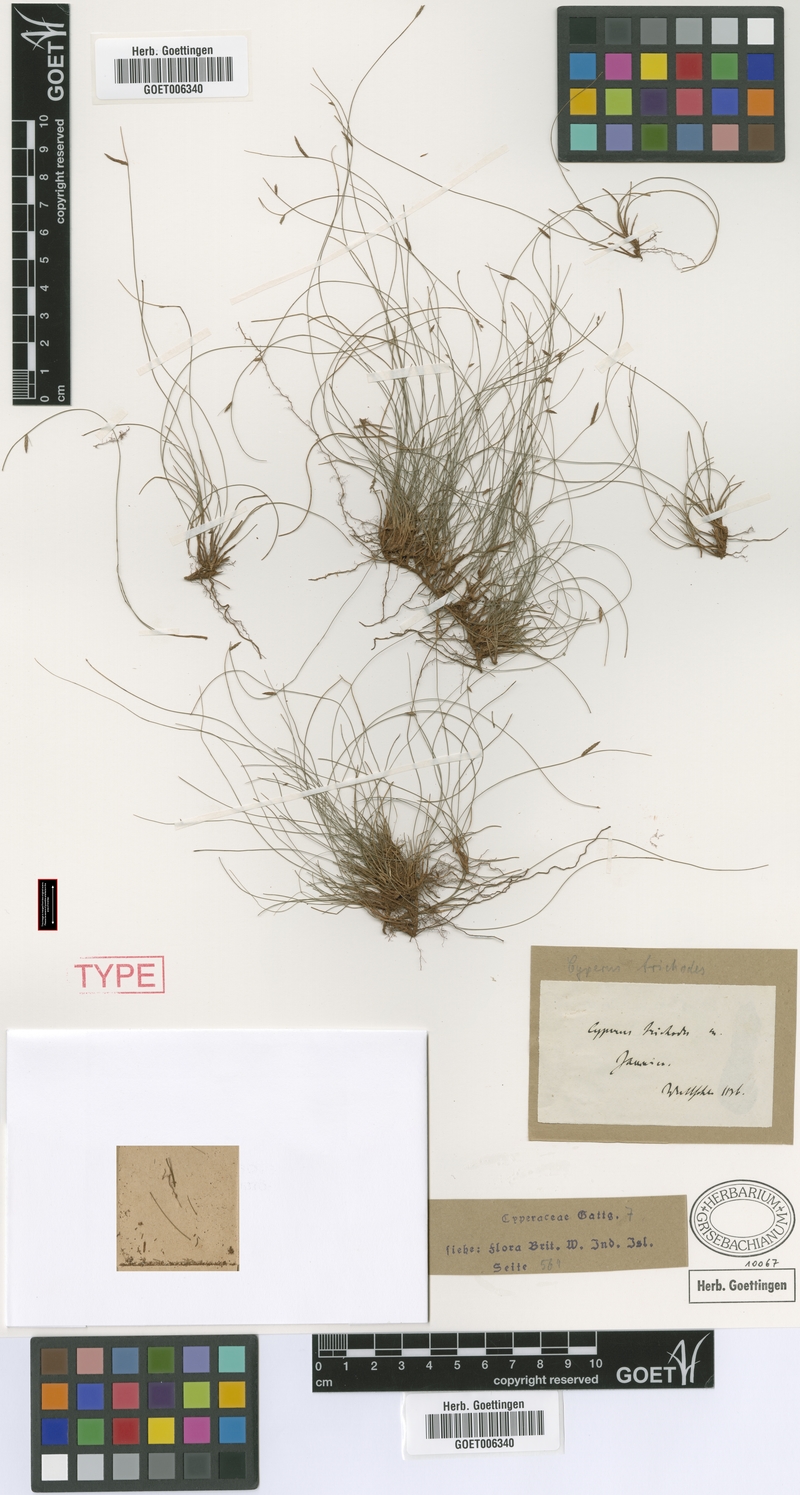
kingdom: Plantae
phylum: Tracheophyta
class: Liliopsida
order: Poales
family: Cyperaceae
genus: Cyperus
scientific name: Cyperus trichodes
